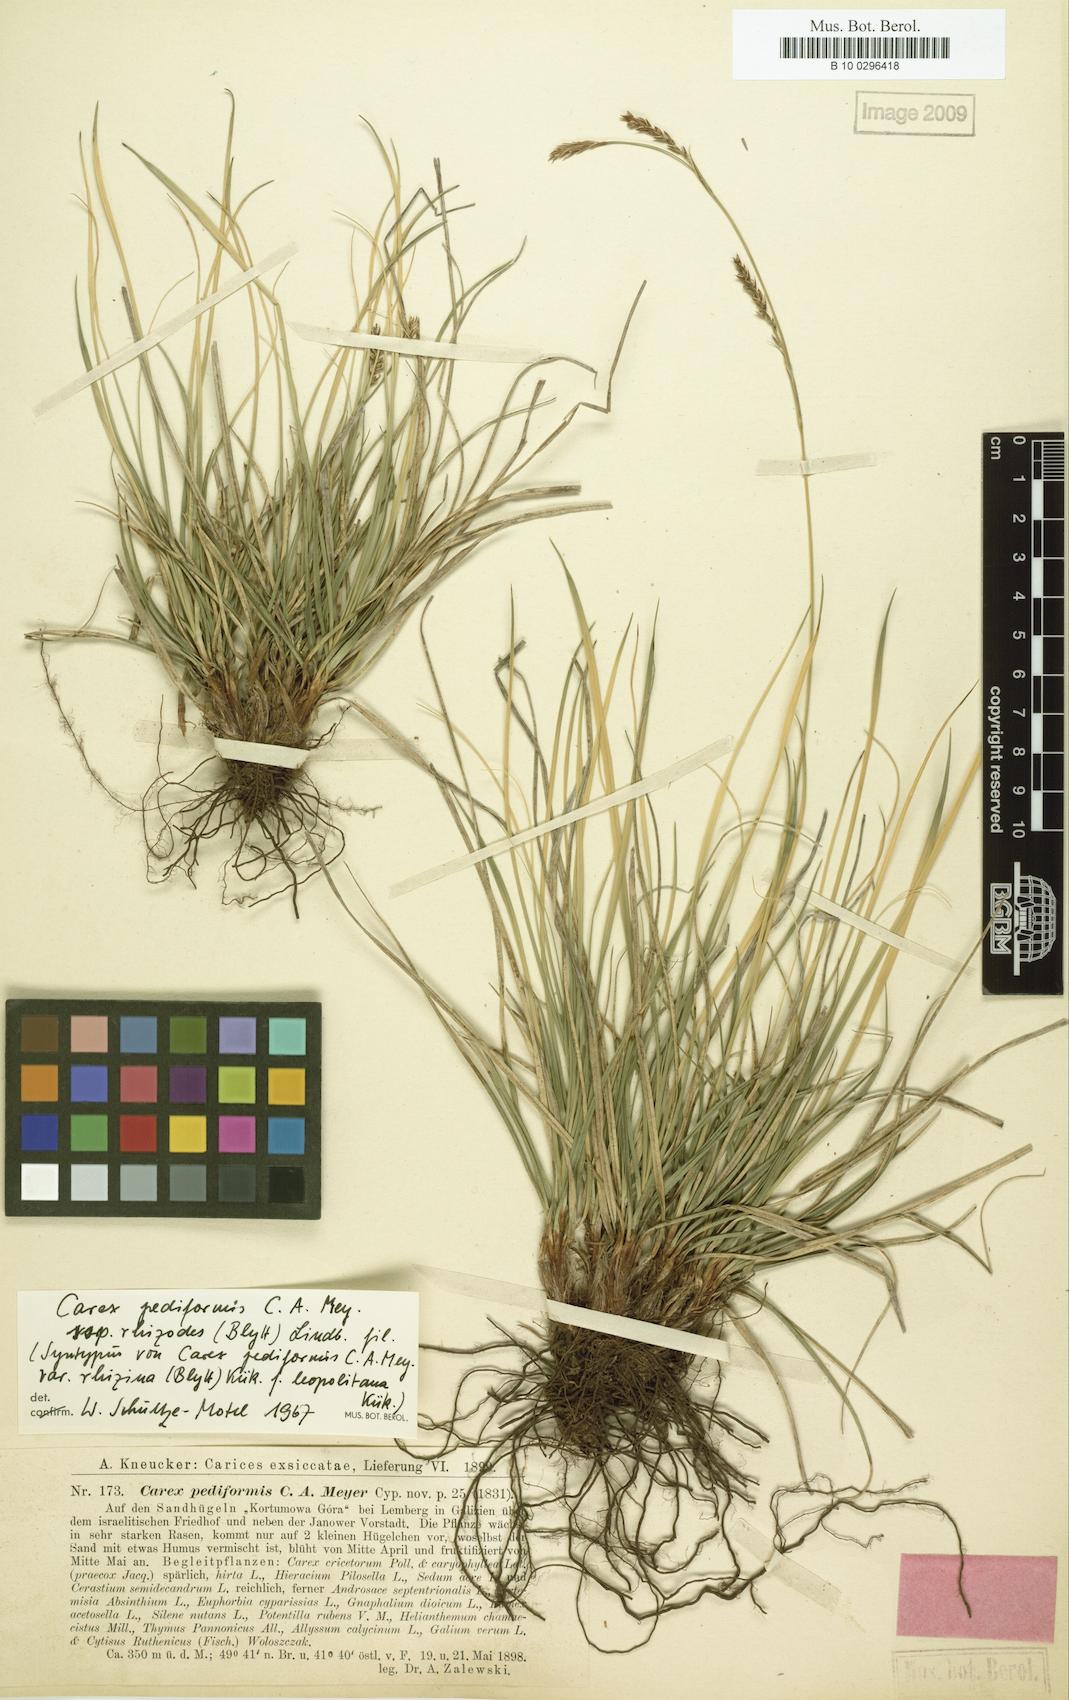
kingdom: Plantae
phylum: Tracheophyta
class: Liliopsida
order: Poales
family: Cyperaceae
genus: Carex
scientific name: Carex rhizina
